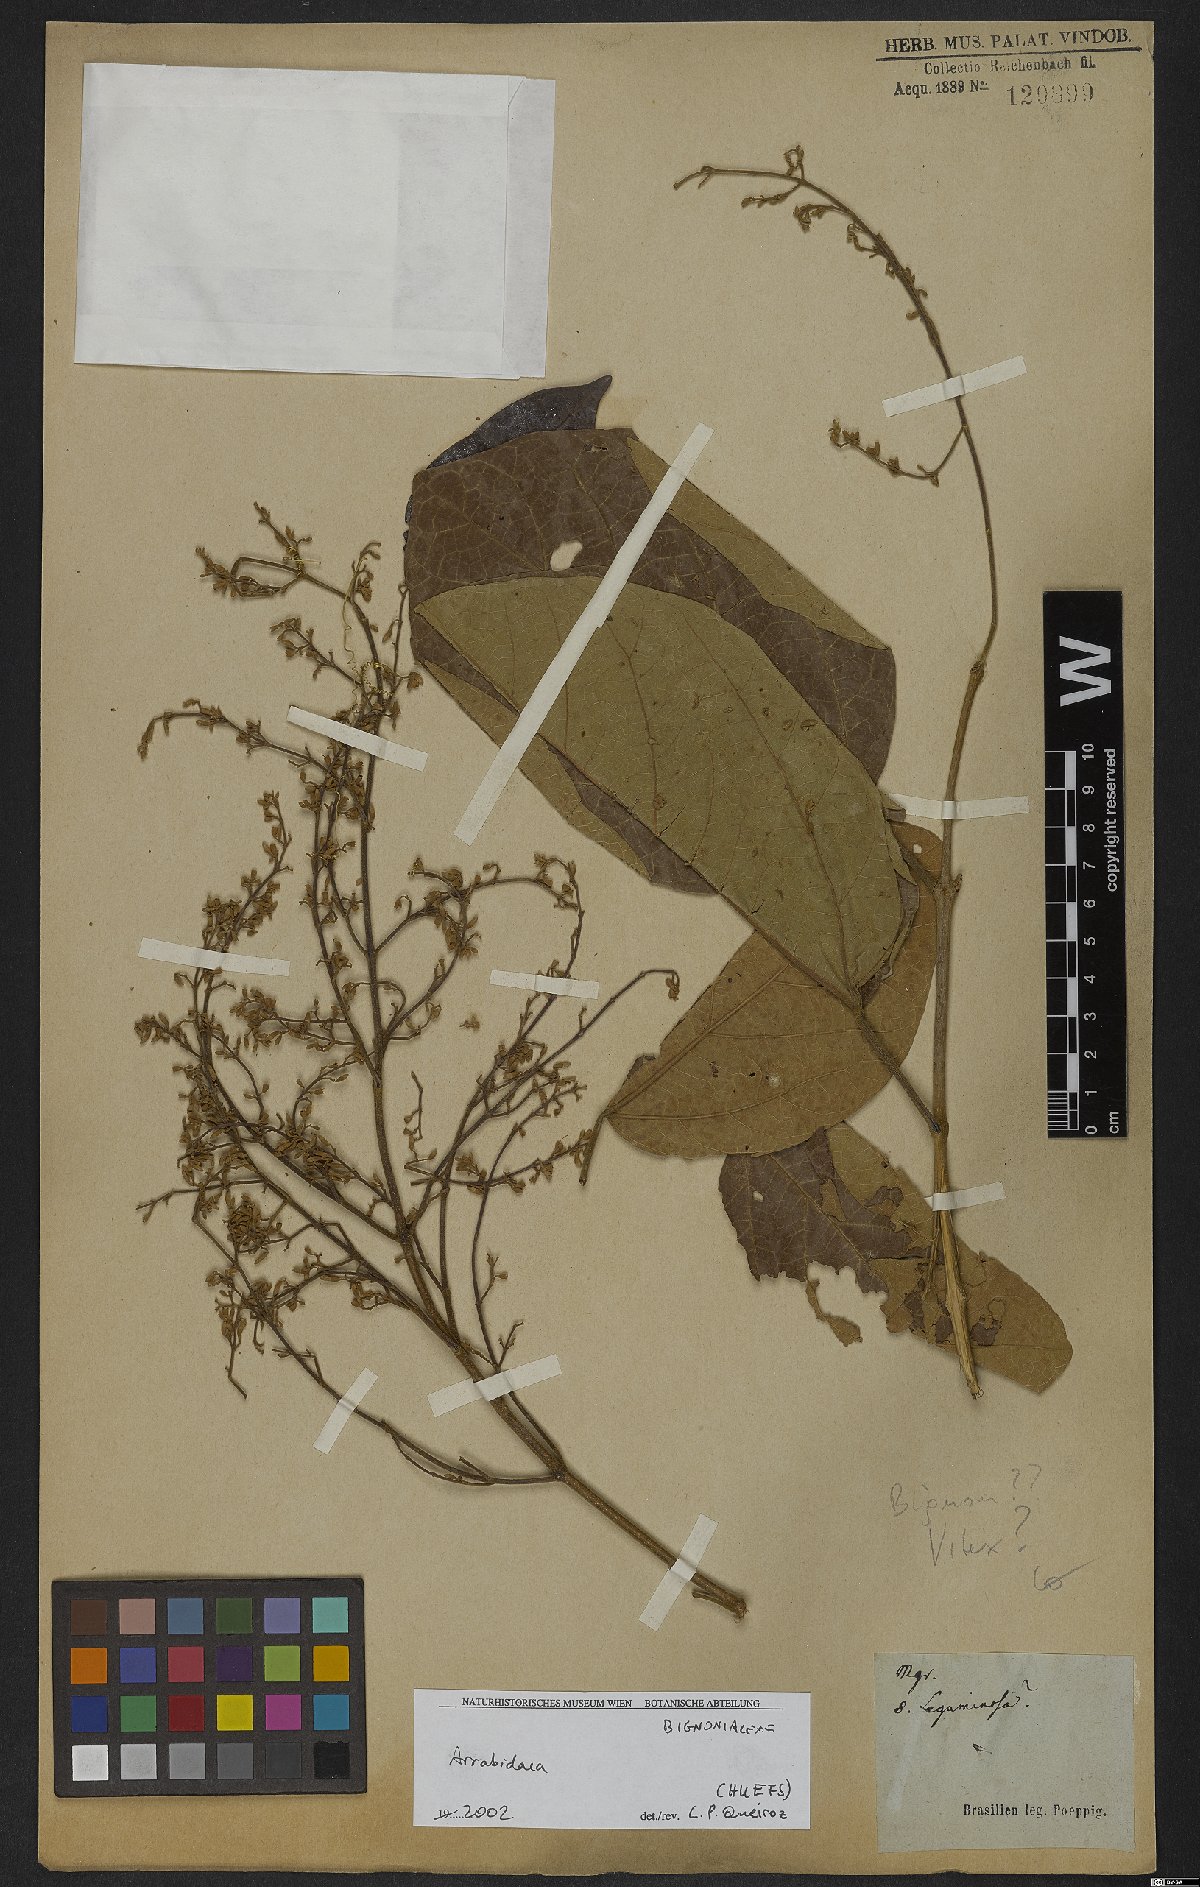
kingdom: Plantae
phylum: Tracheophyta
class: Magnoliopsida
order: Rosales
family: Rhamnaceae
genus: Arrabidaea
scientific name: Arrabidaea
